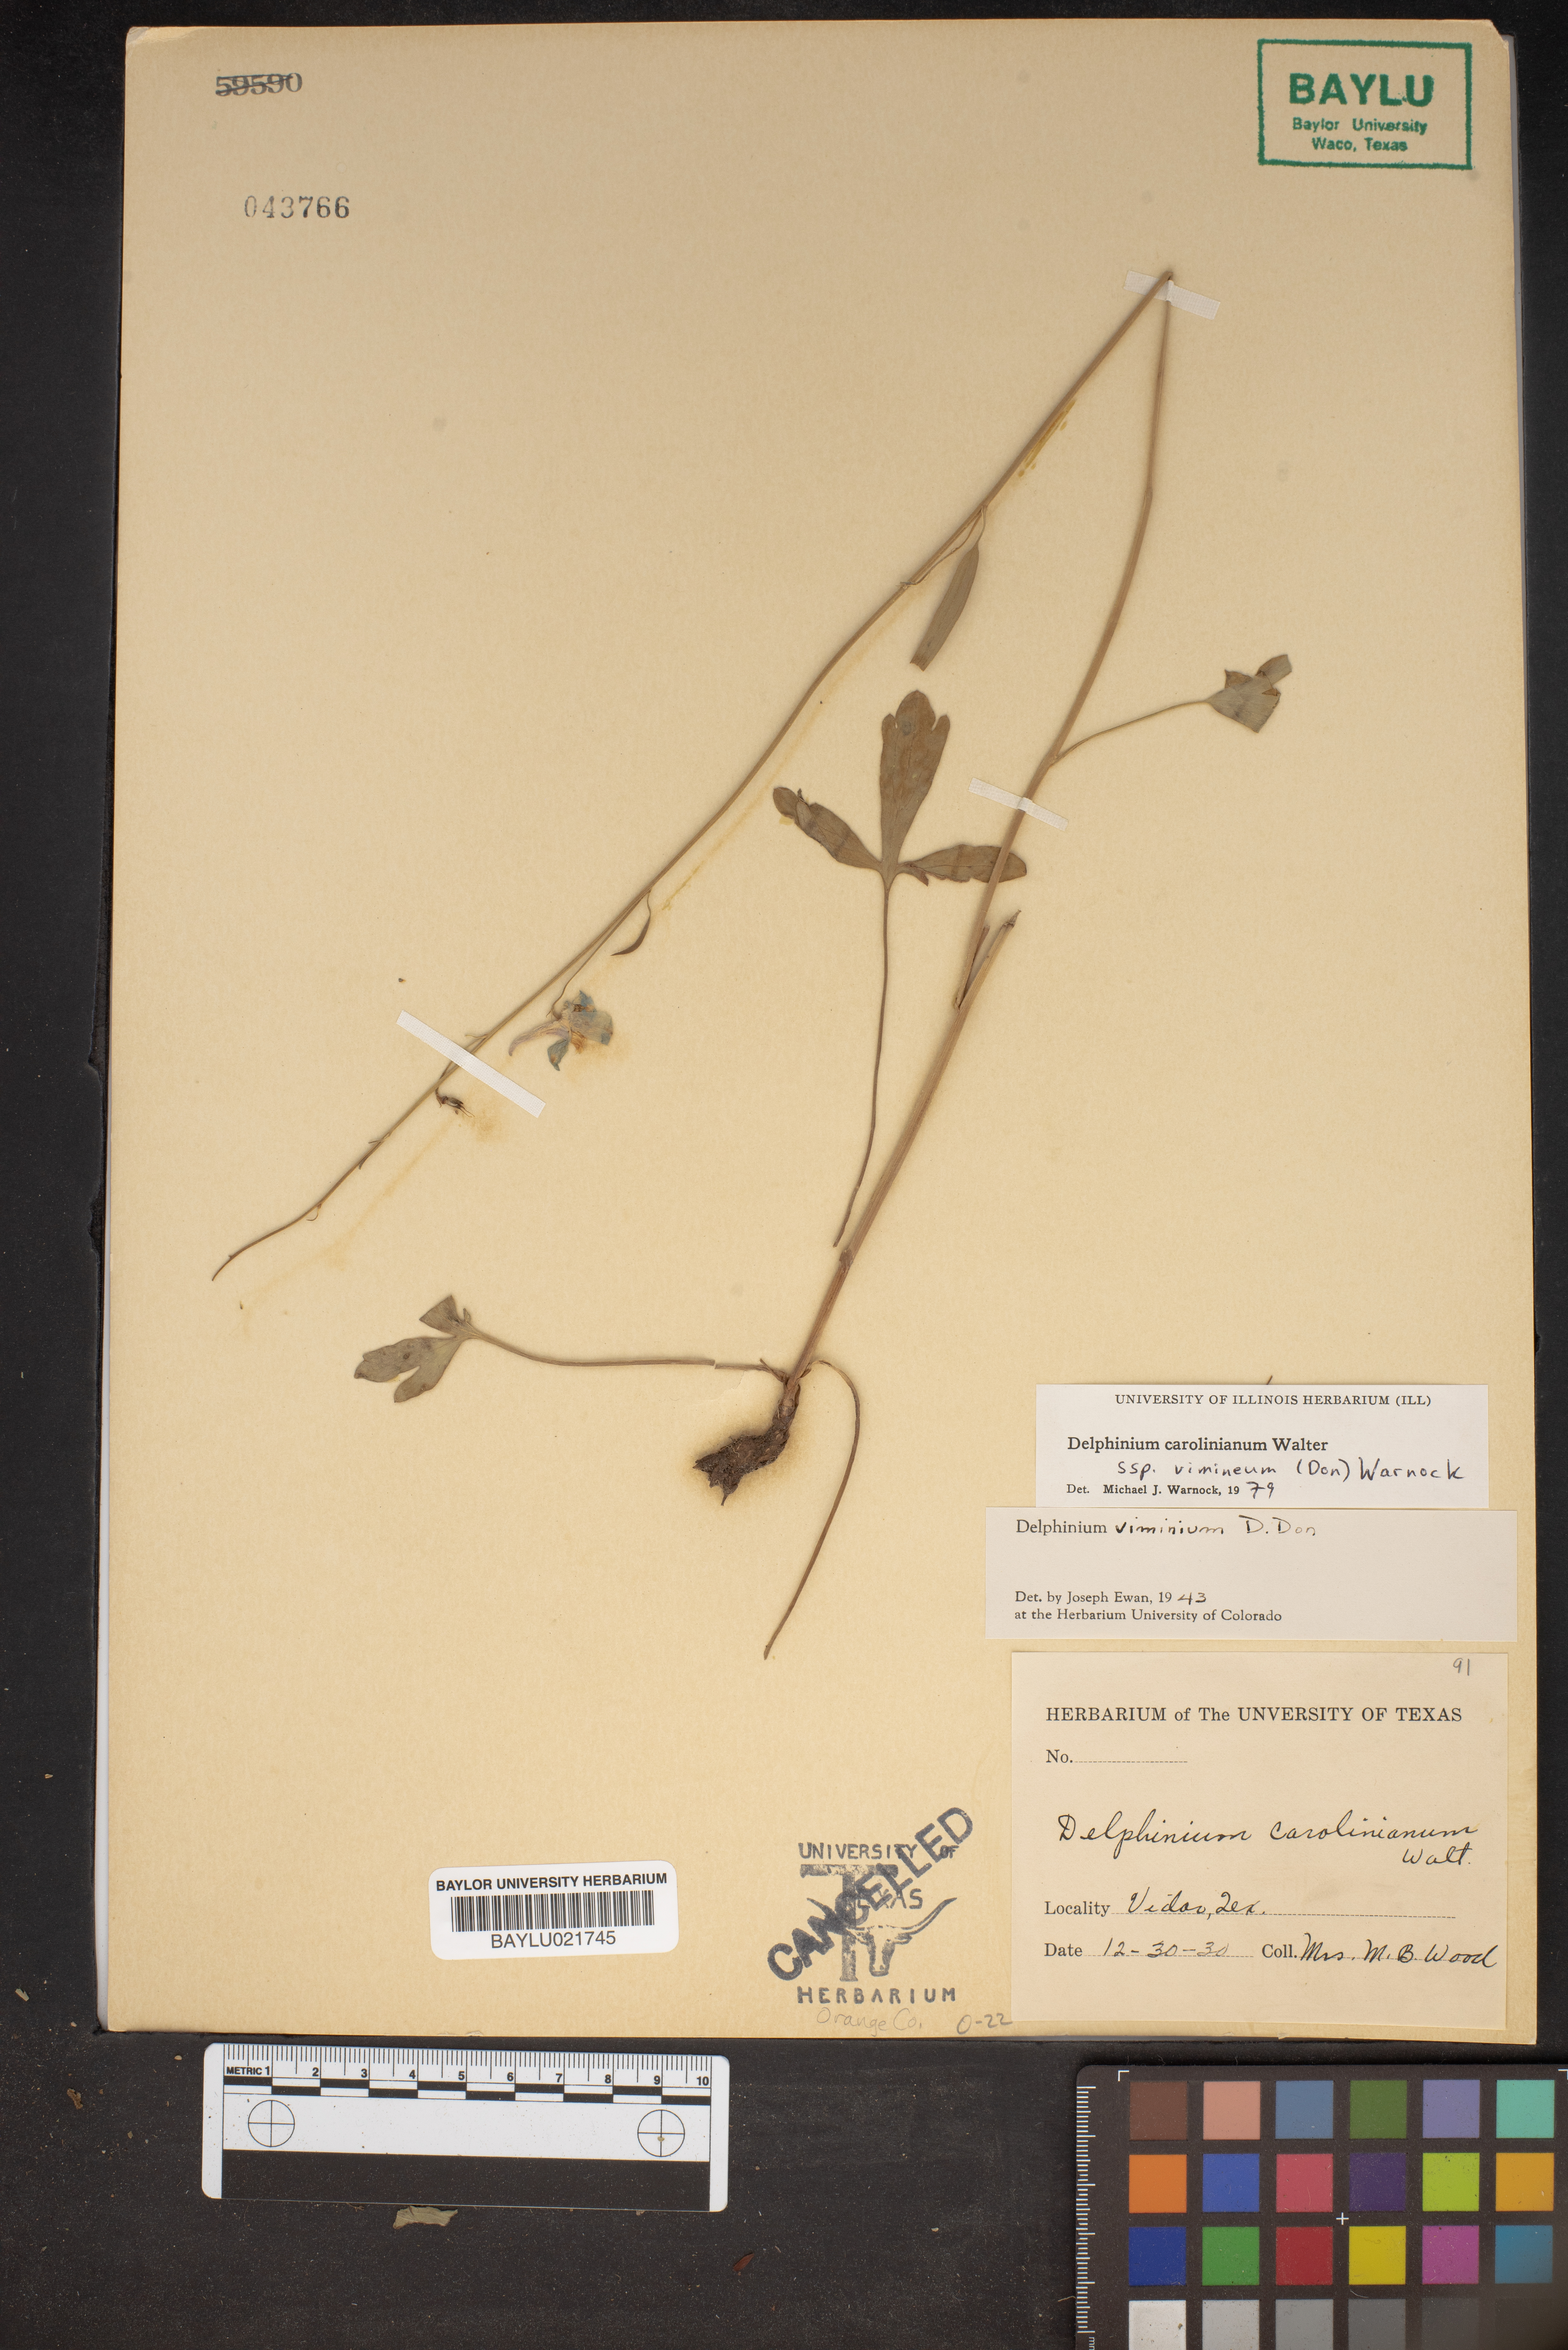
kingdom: Plantae
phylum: Tracheophyta
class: Magnoliopsida
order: Ranunculales
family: Ranunculaceae
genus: Delphinium
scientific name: Delphinium carolinianum
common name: Carolina larkspur
